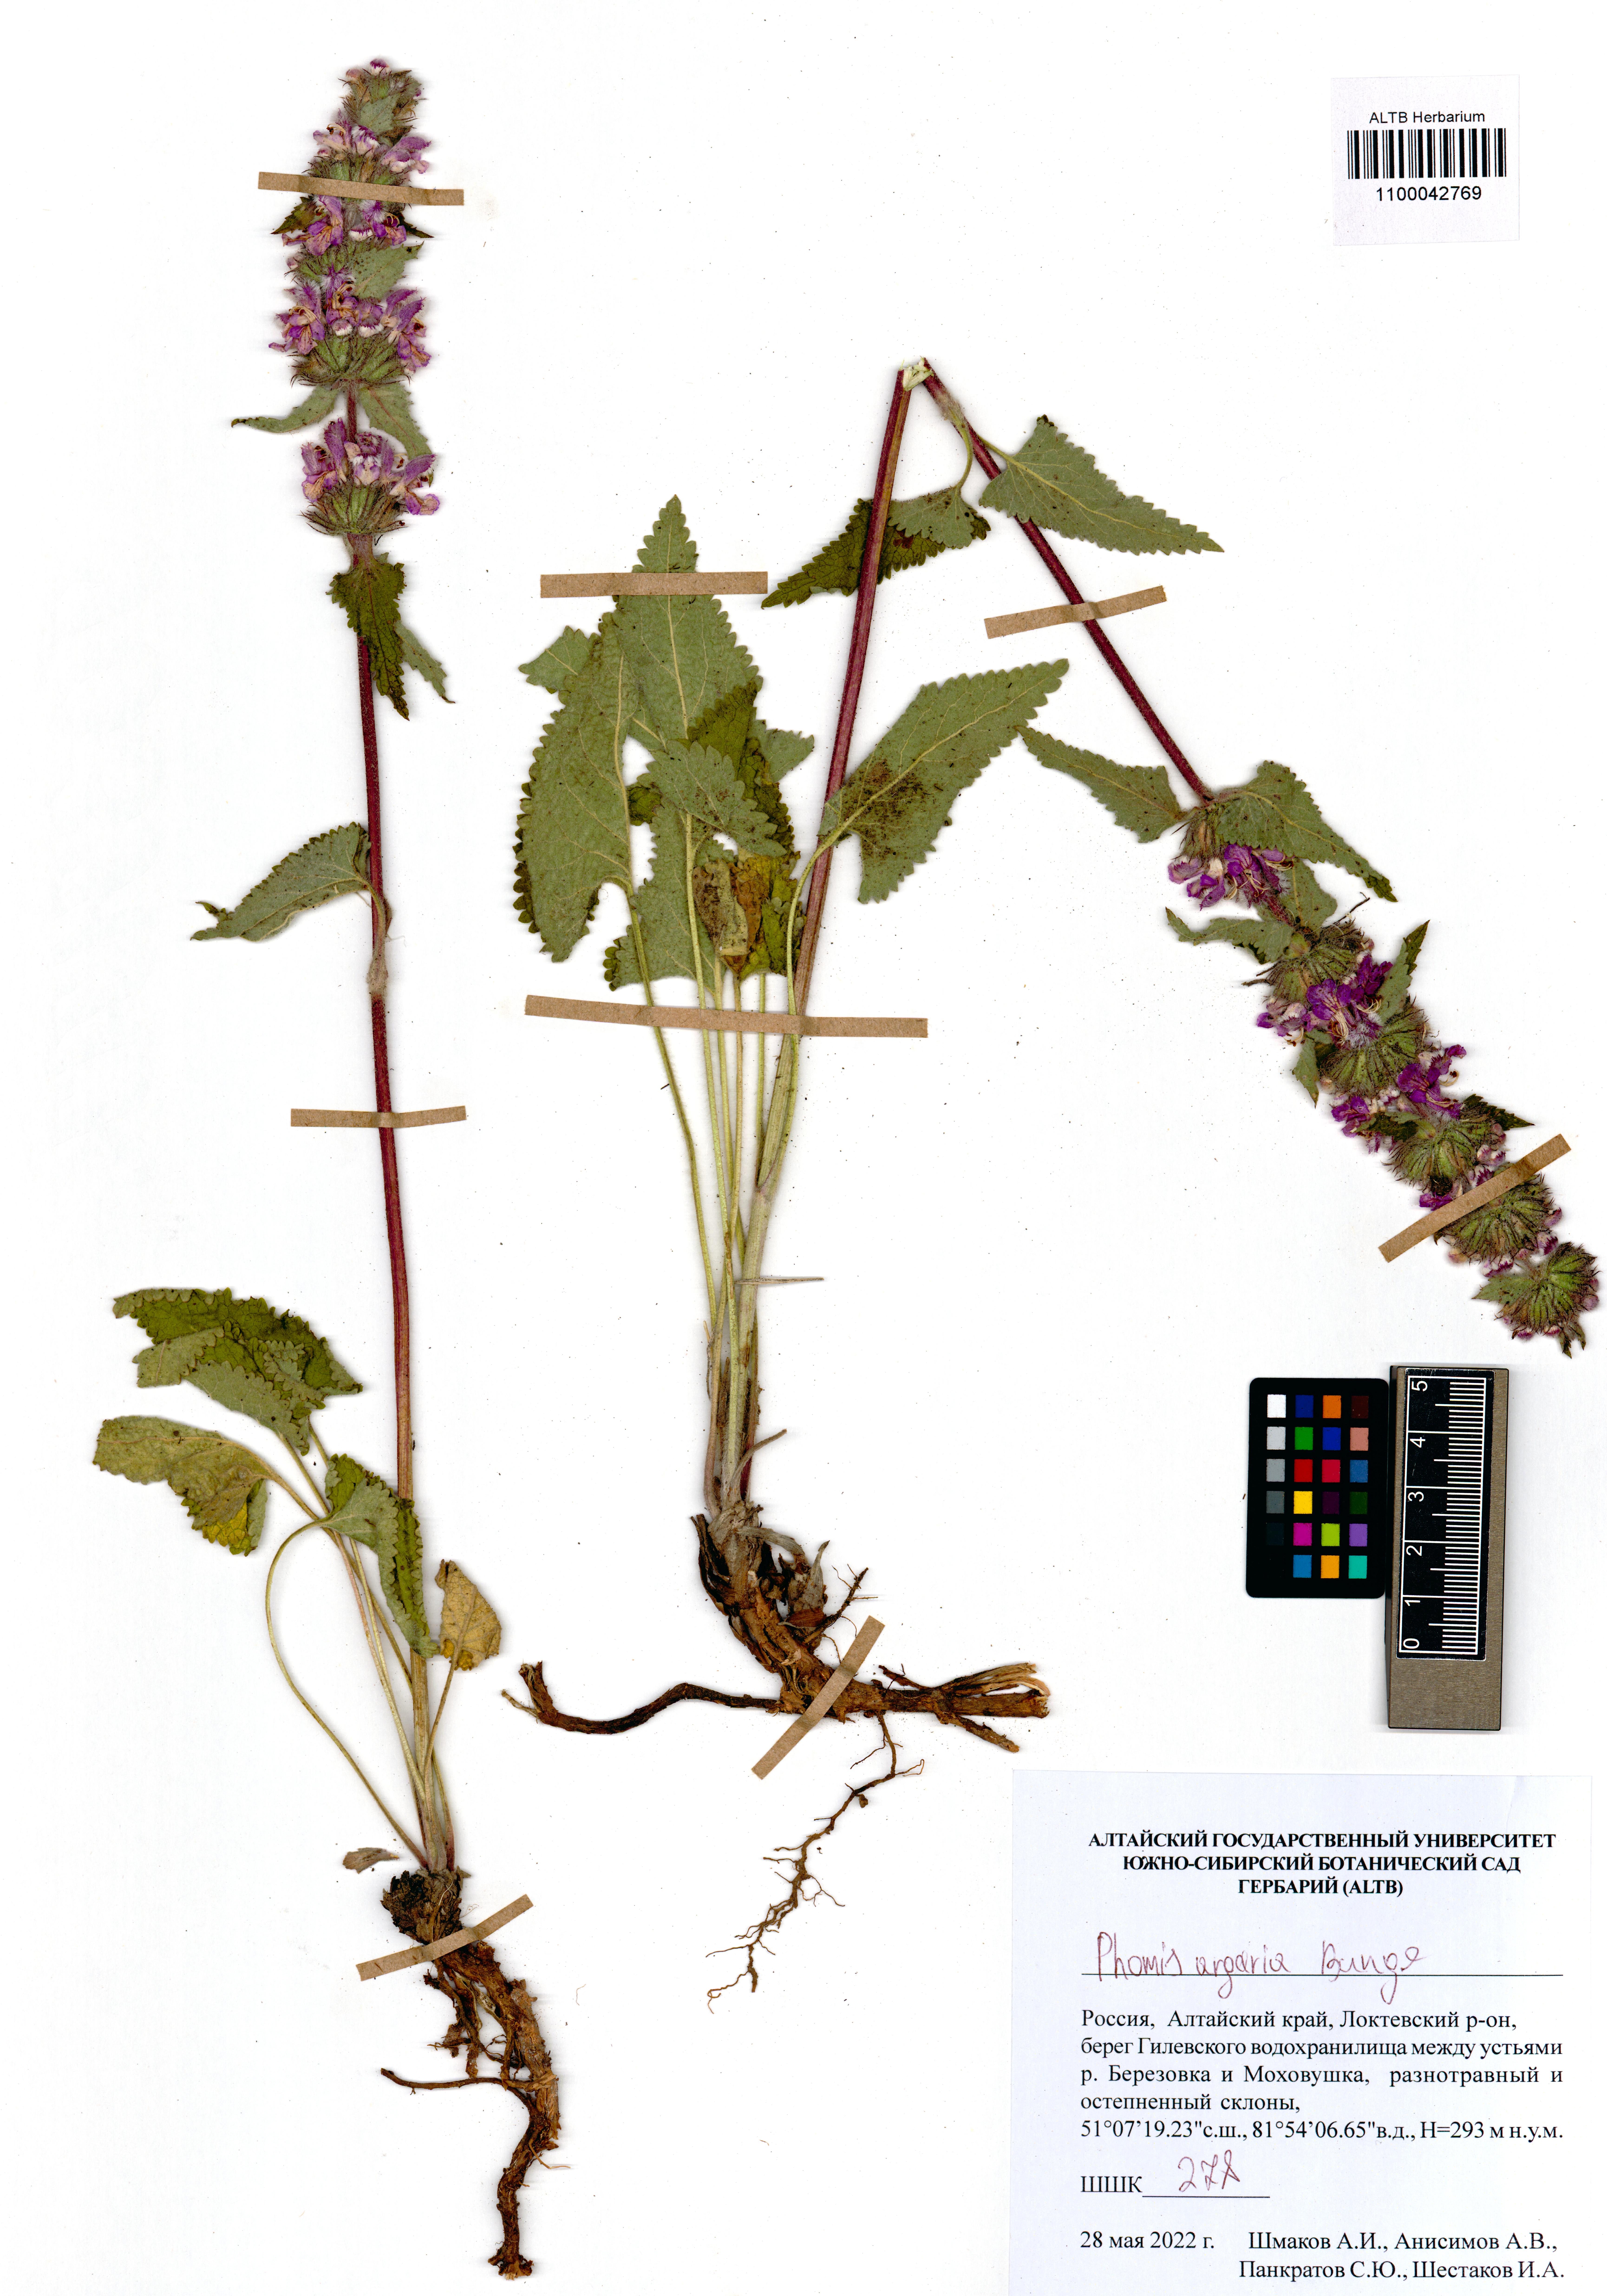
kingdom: Plantae
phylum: Tracheophyta
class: Magnoliopsida
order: Lamiales
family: Lamiaceae
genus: Phlomoides
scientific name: Phlomoides agraria
